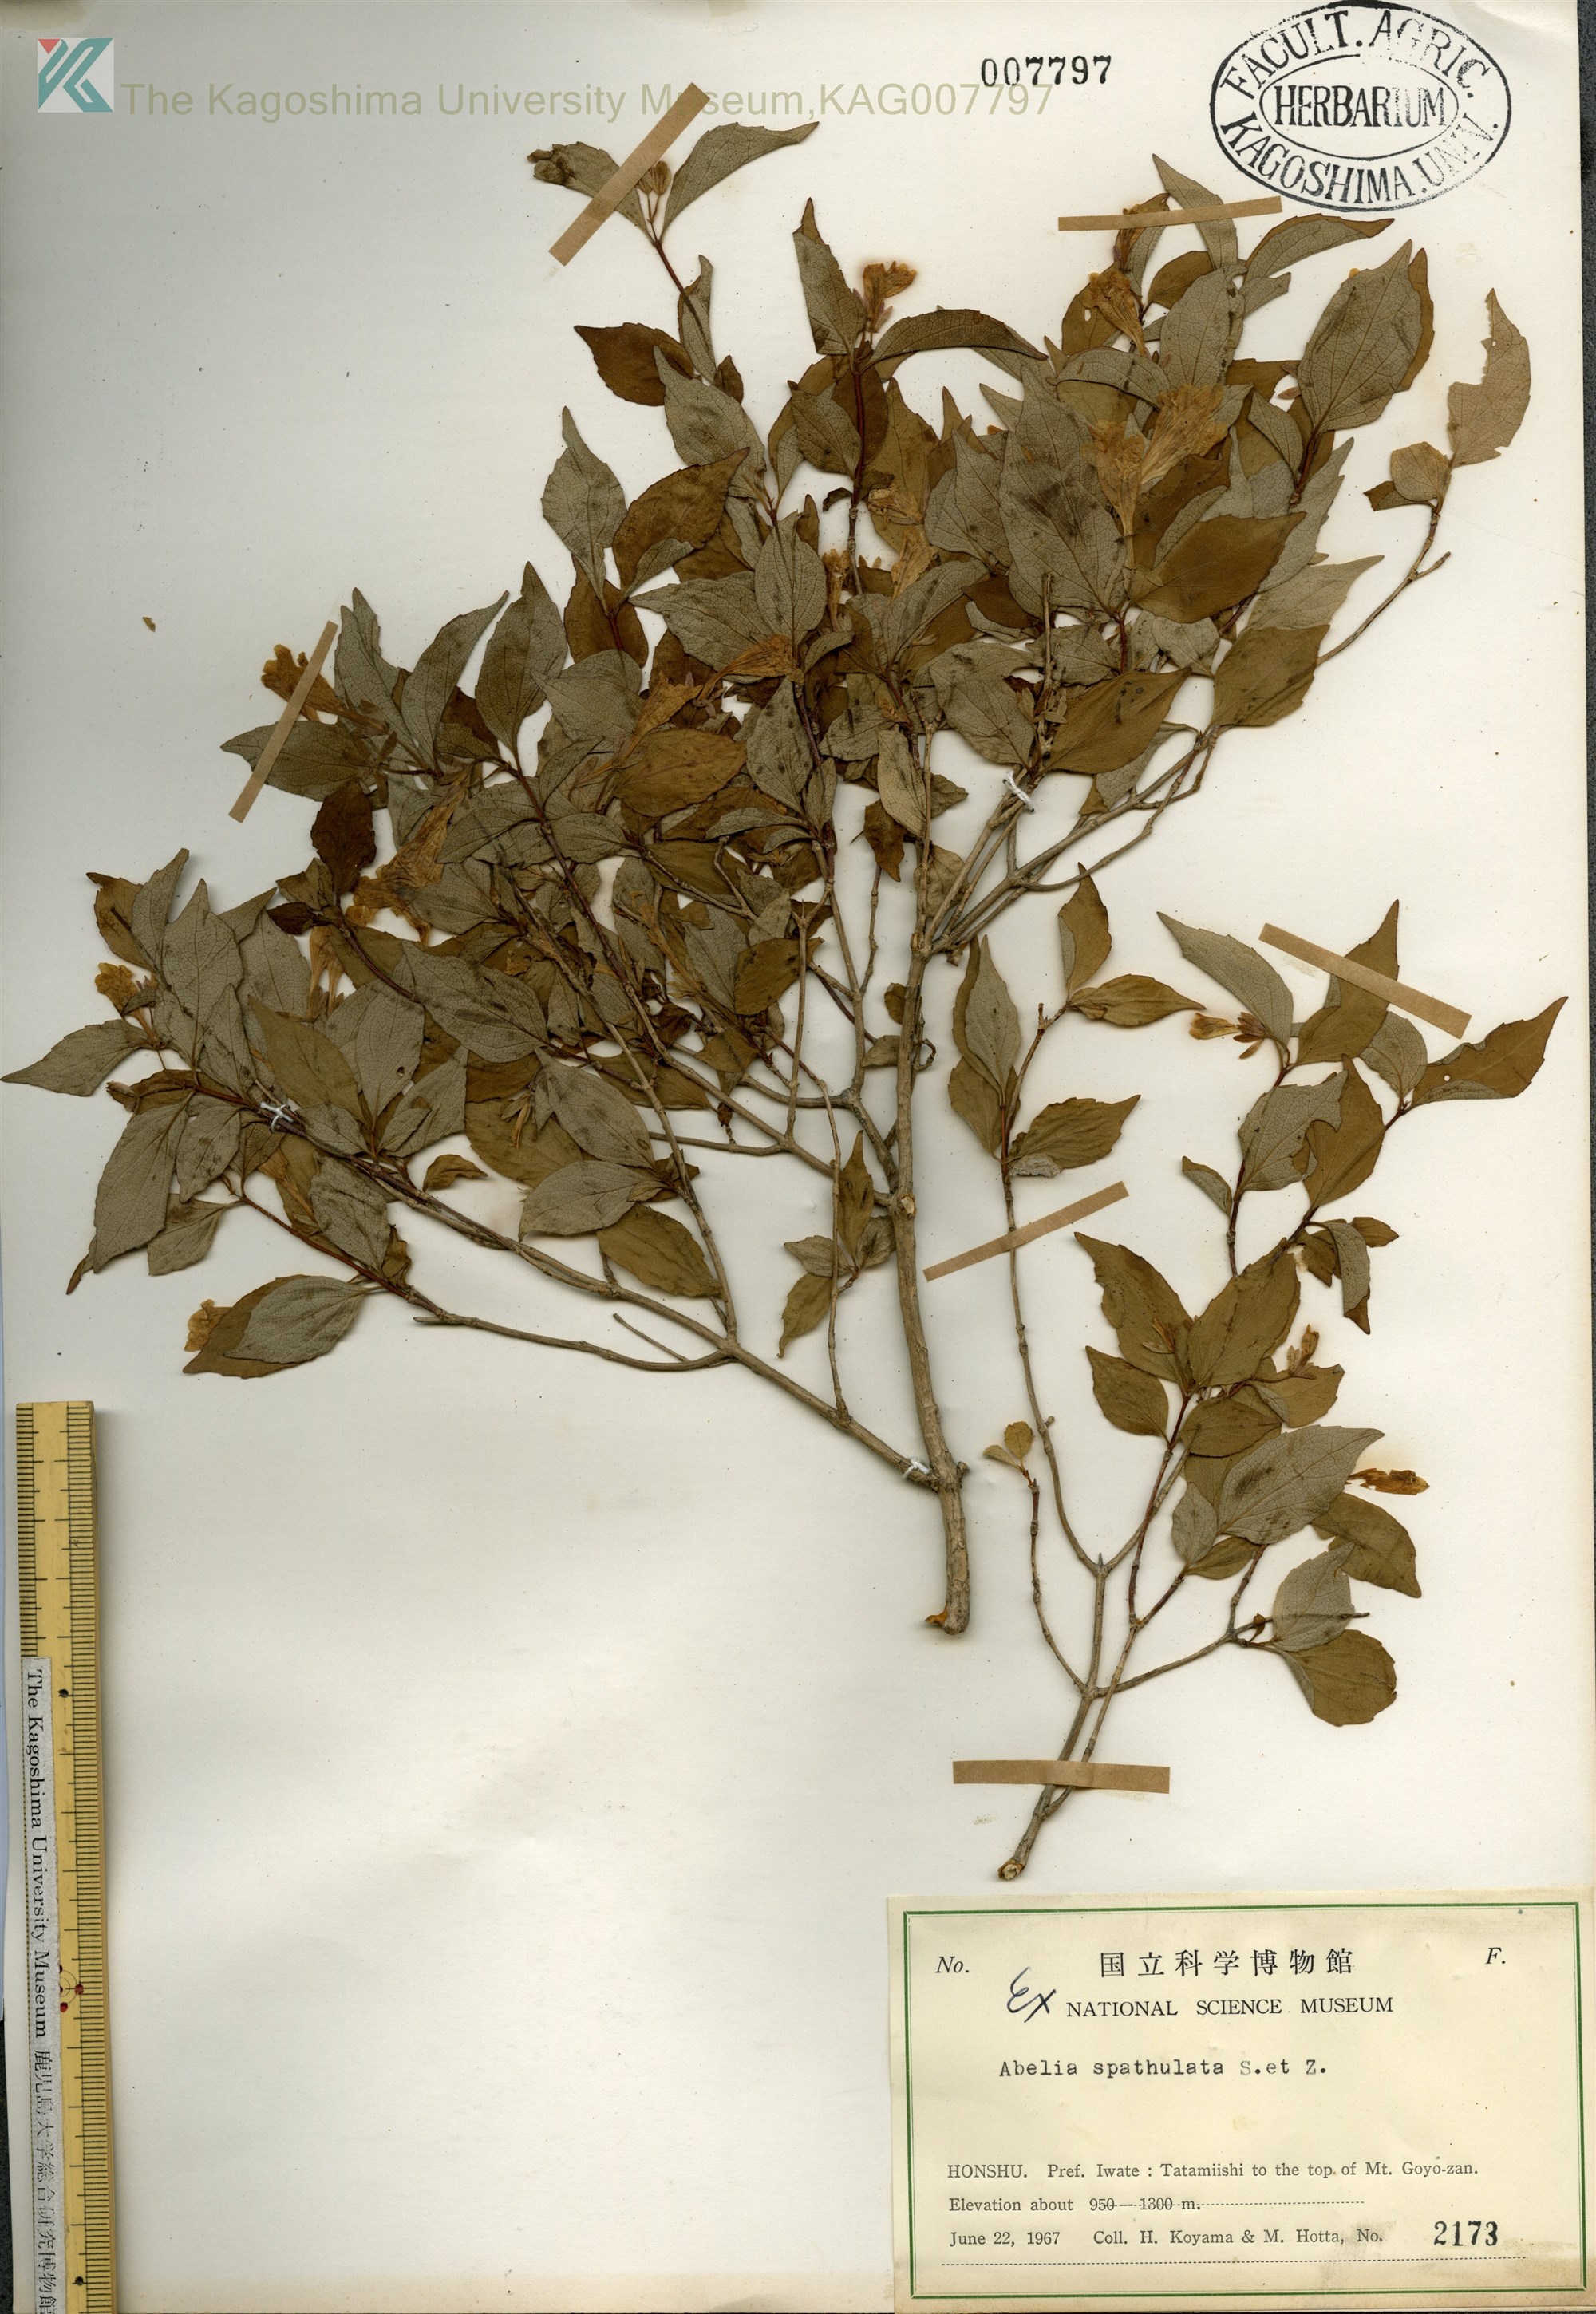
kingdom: Plantae
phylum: Tracheophyta
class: Magnoliopsida
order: Dipsacales
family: Caprifoliaceae
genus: Diabelia
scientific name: Diabelia spathulata
